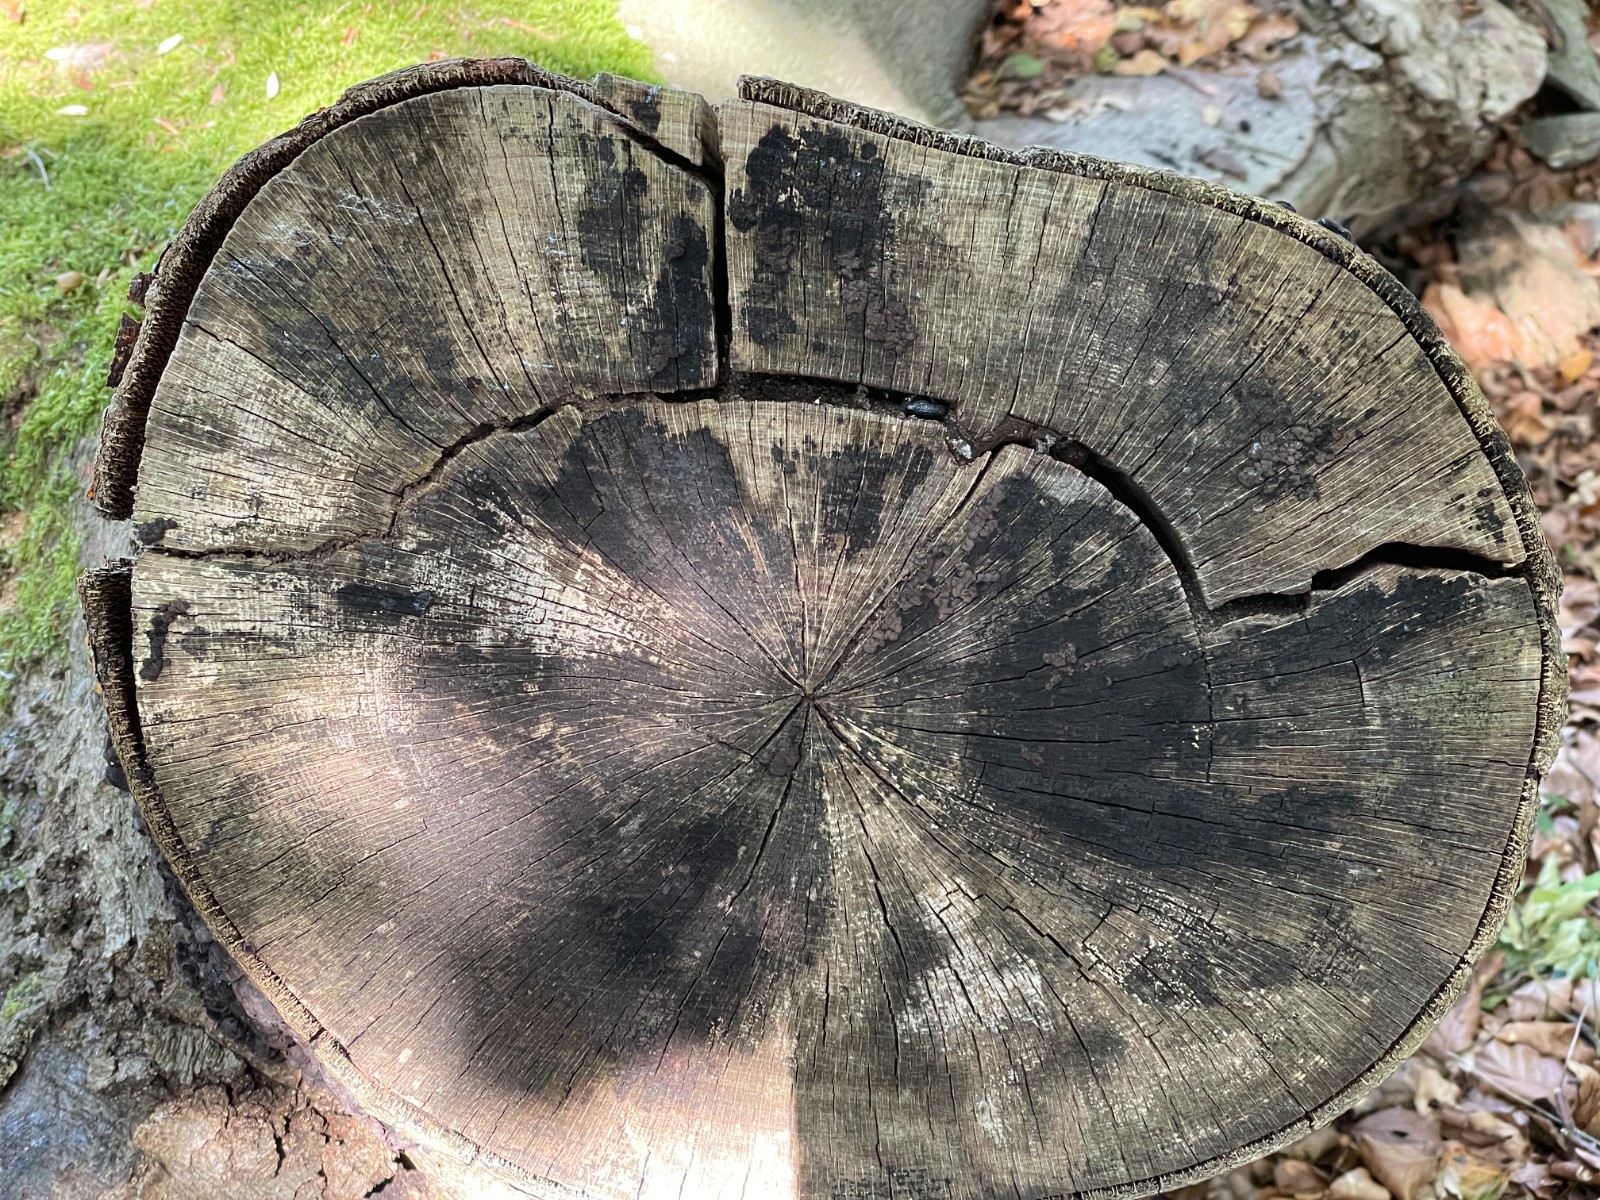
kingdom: Fungi
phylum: Ascomycota
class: Leotiomycetes
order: Helotiales
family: Helotiaceae
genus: Bispora
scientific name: Bispora pallescens
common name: måtte-snitskive
